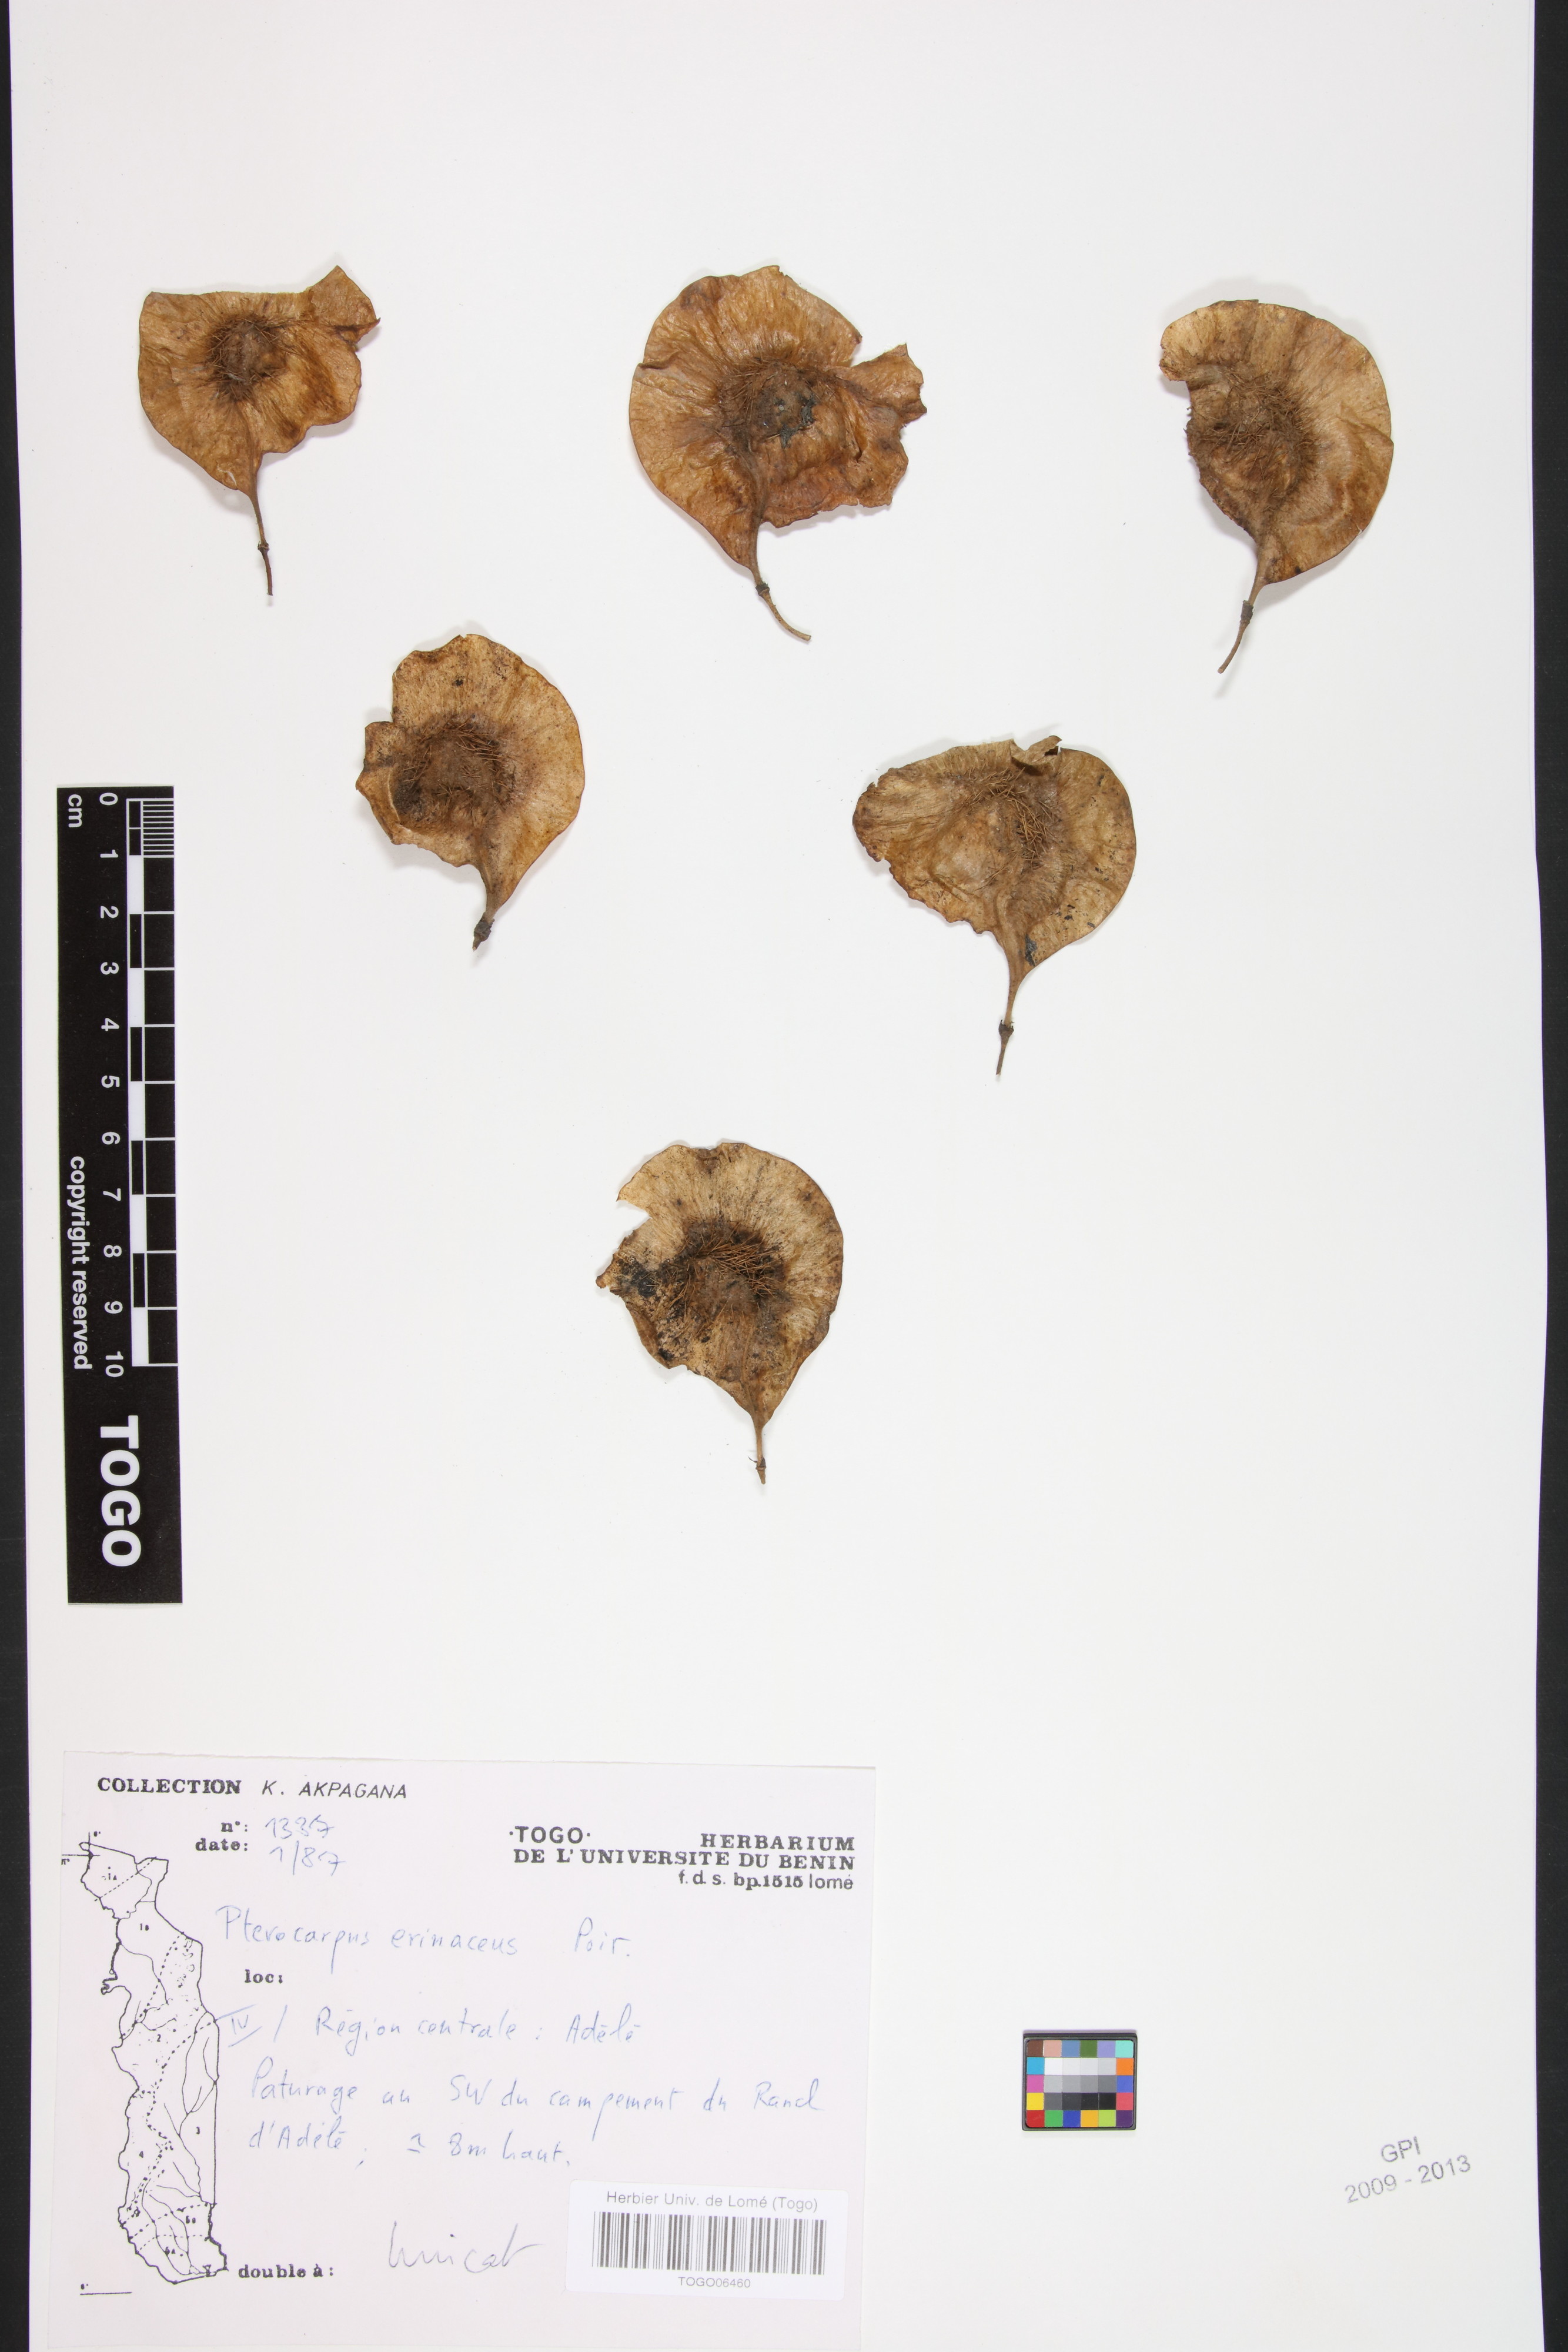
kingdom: Plantae
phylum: Tracheophyta
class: Magnoliopsida
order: Fabales
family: Fabaceae
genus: Pterocarpus
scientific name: Pterocarpus erinaceus
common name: African rosewood
